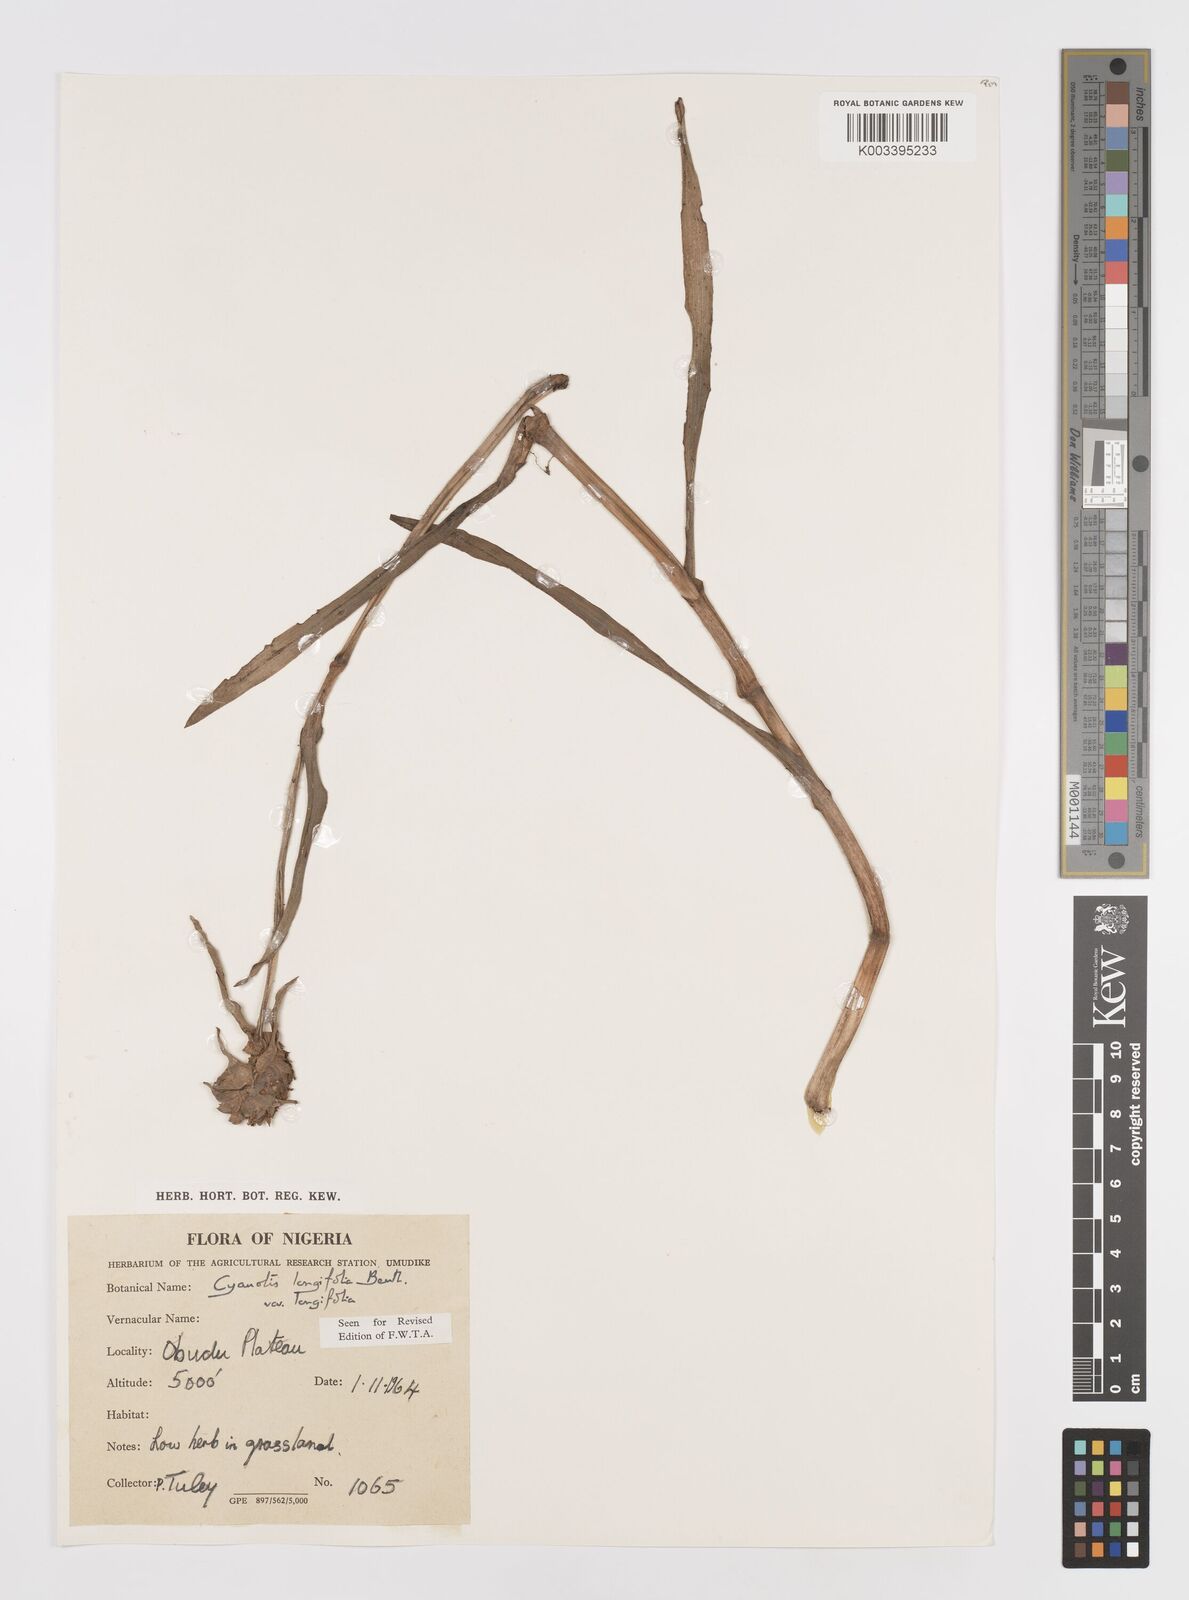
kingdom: Plantae
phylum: Tracheophyta
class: Liliopsida
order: Commelinales
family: Commelinaceae
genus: Cyanotis
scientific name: Cyanotis
